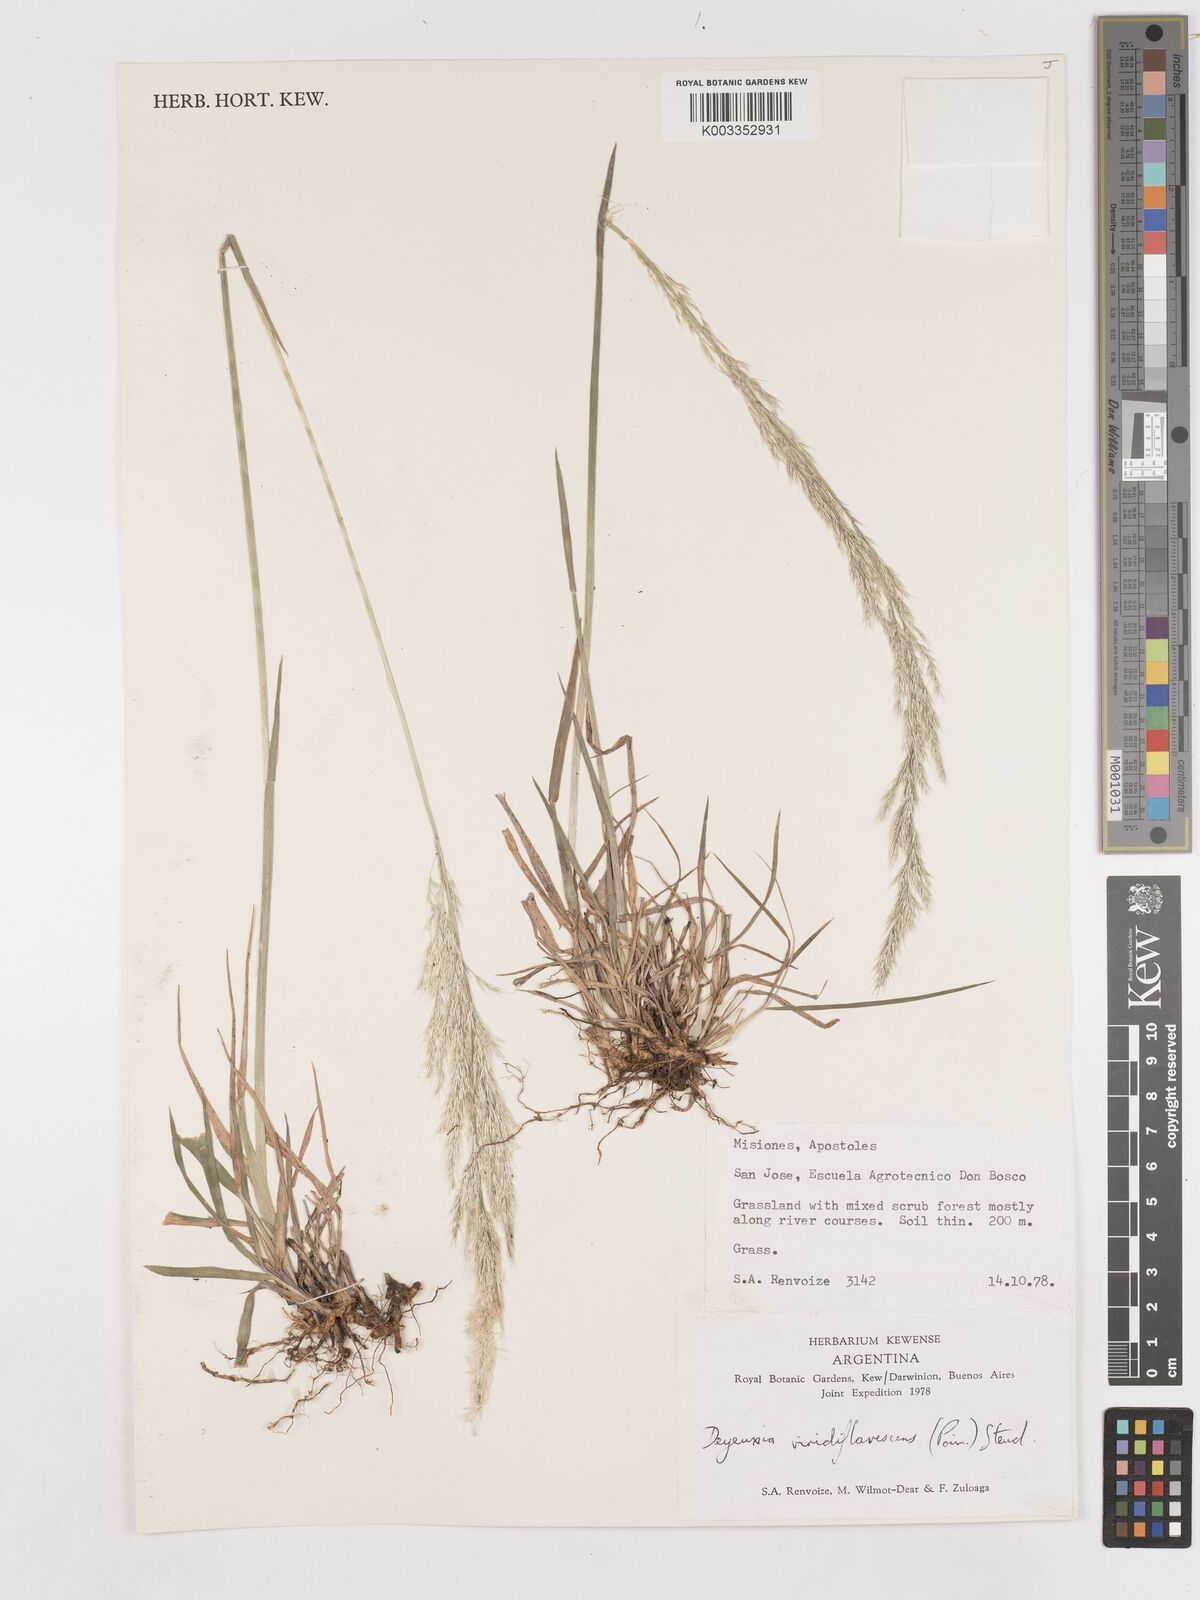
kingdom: Plantae
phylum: Tracheophyta
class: Liliopsida
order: Poales
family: Poaceae
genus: Cinnagrostis
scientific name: Cinnagrostis viridiflavescens
